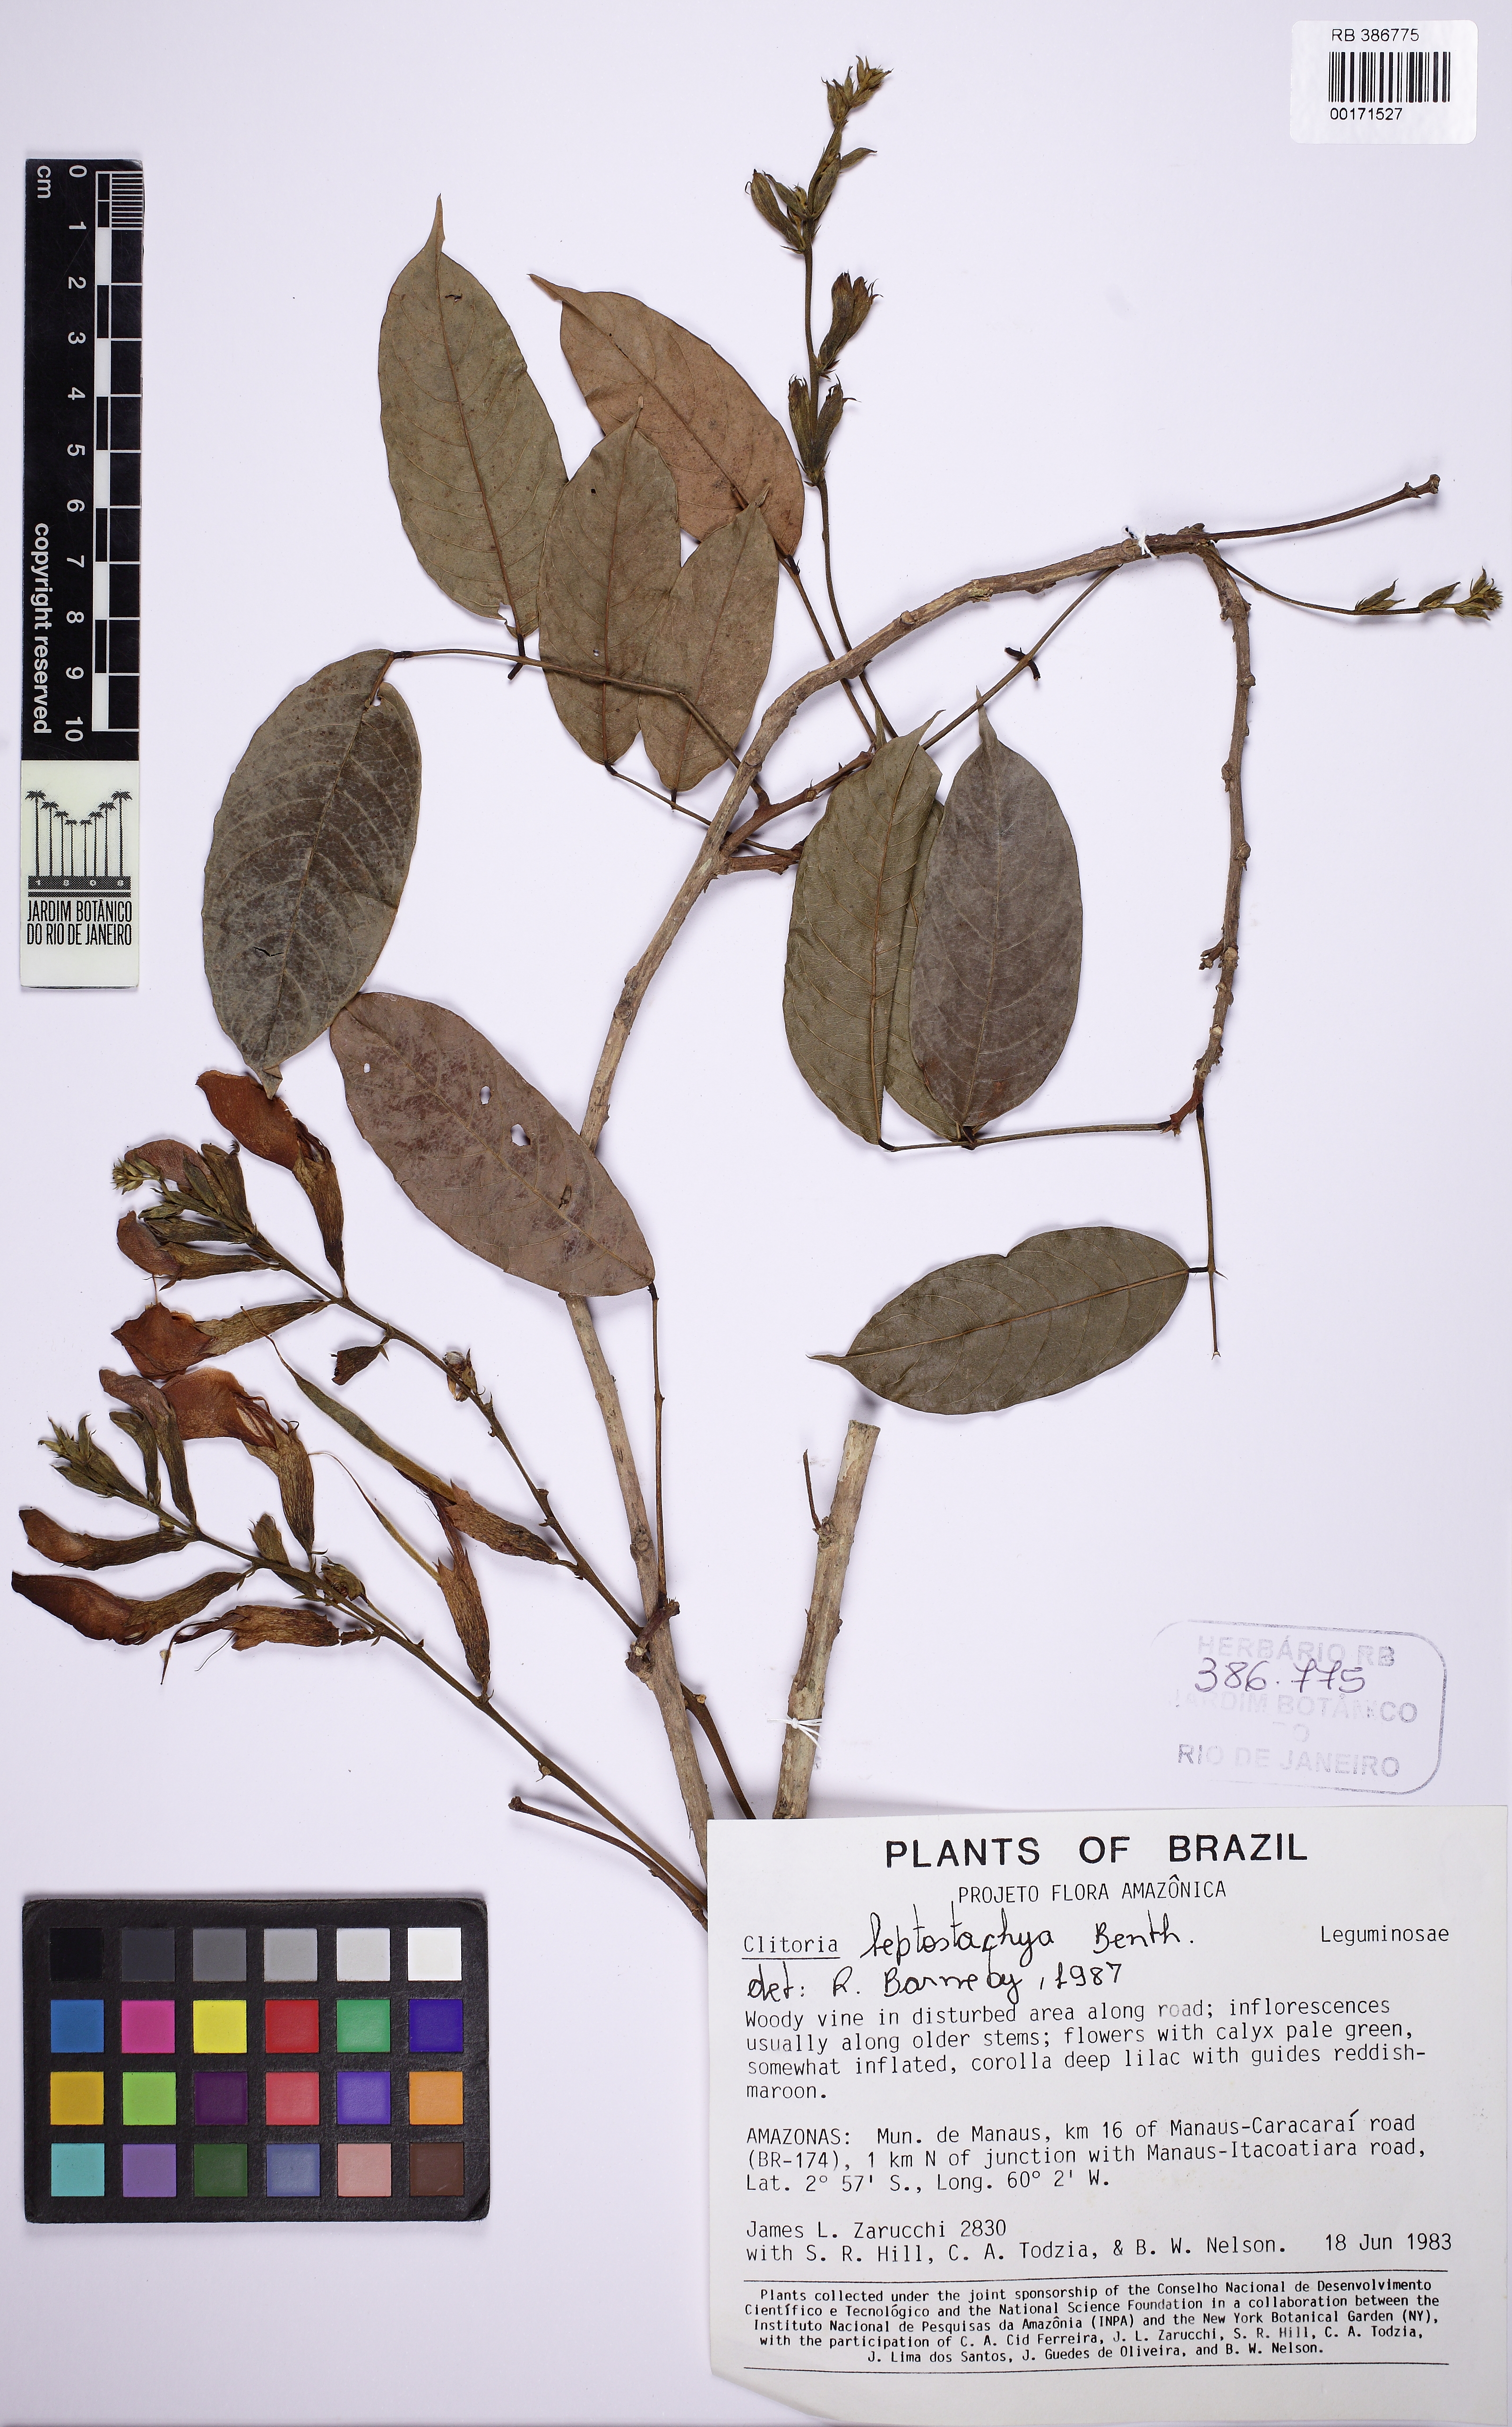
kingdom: Plantae
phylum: Tracheophyta
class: Magnoliopsida
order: Fabales
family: Fabaceae
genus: Clitoria
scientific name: Clitoria leptostachya
